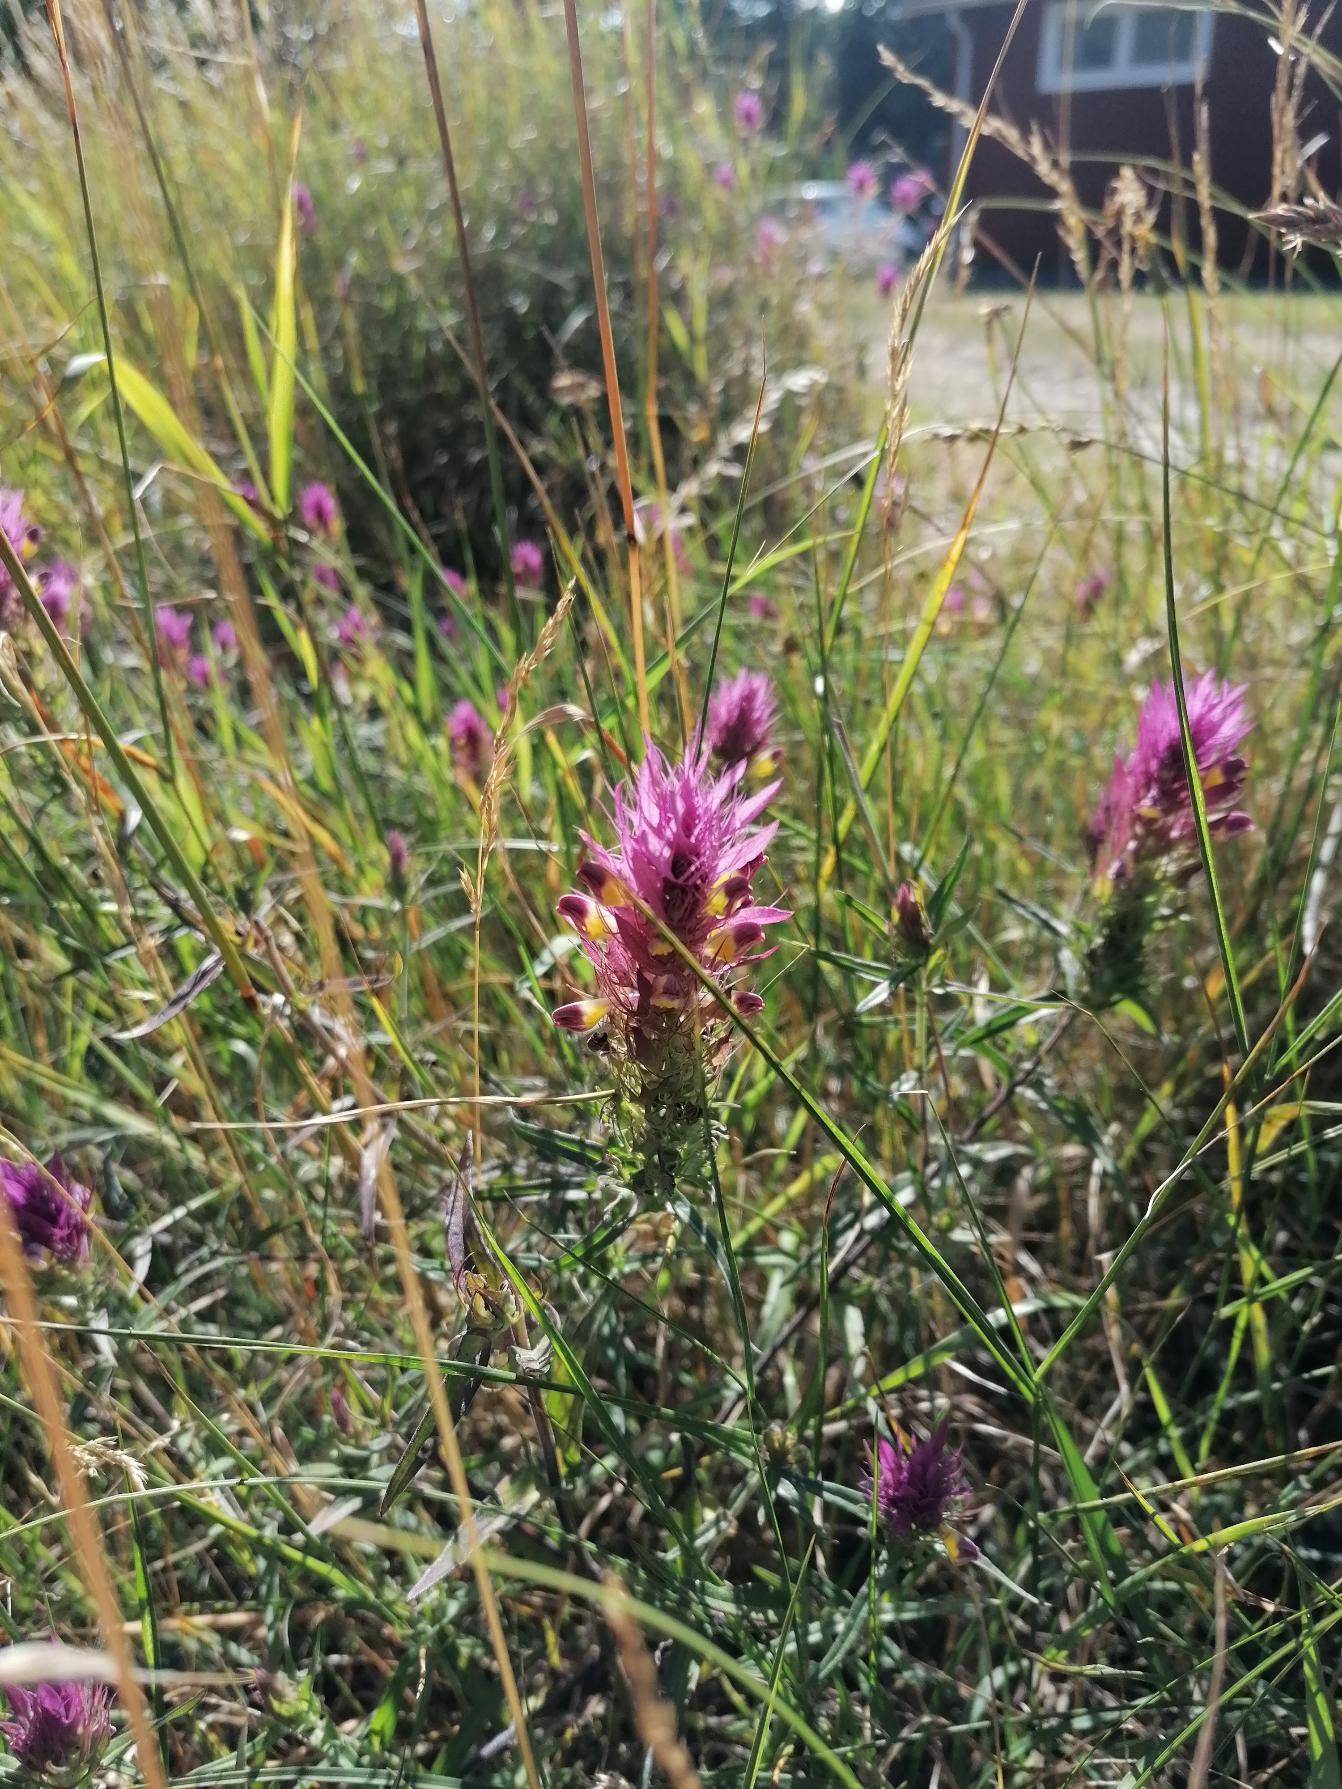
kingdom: Plantae
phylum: Tracheophyta
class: Magnoliopsida
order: Lamiales
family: Orobanchaceae
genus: Melampyrum
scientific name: Melampyrum arvense
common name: Ager-kohvede
